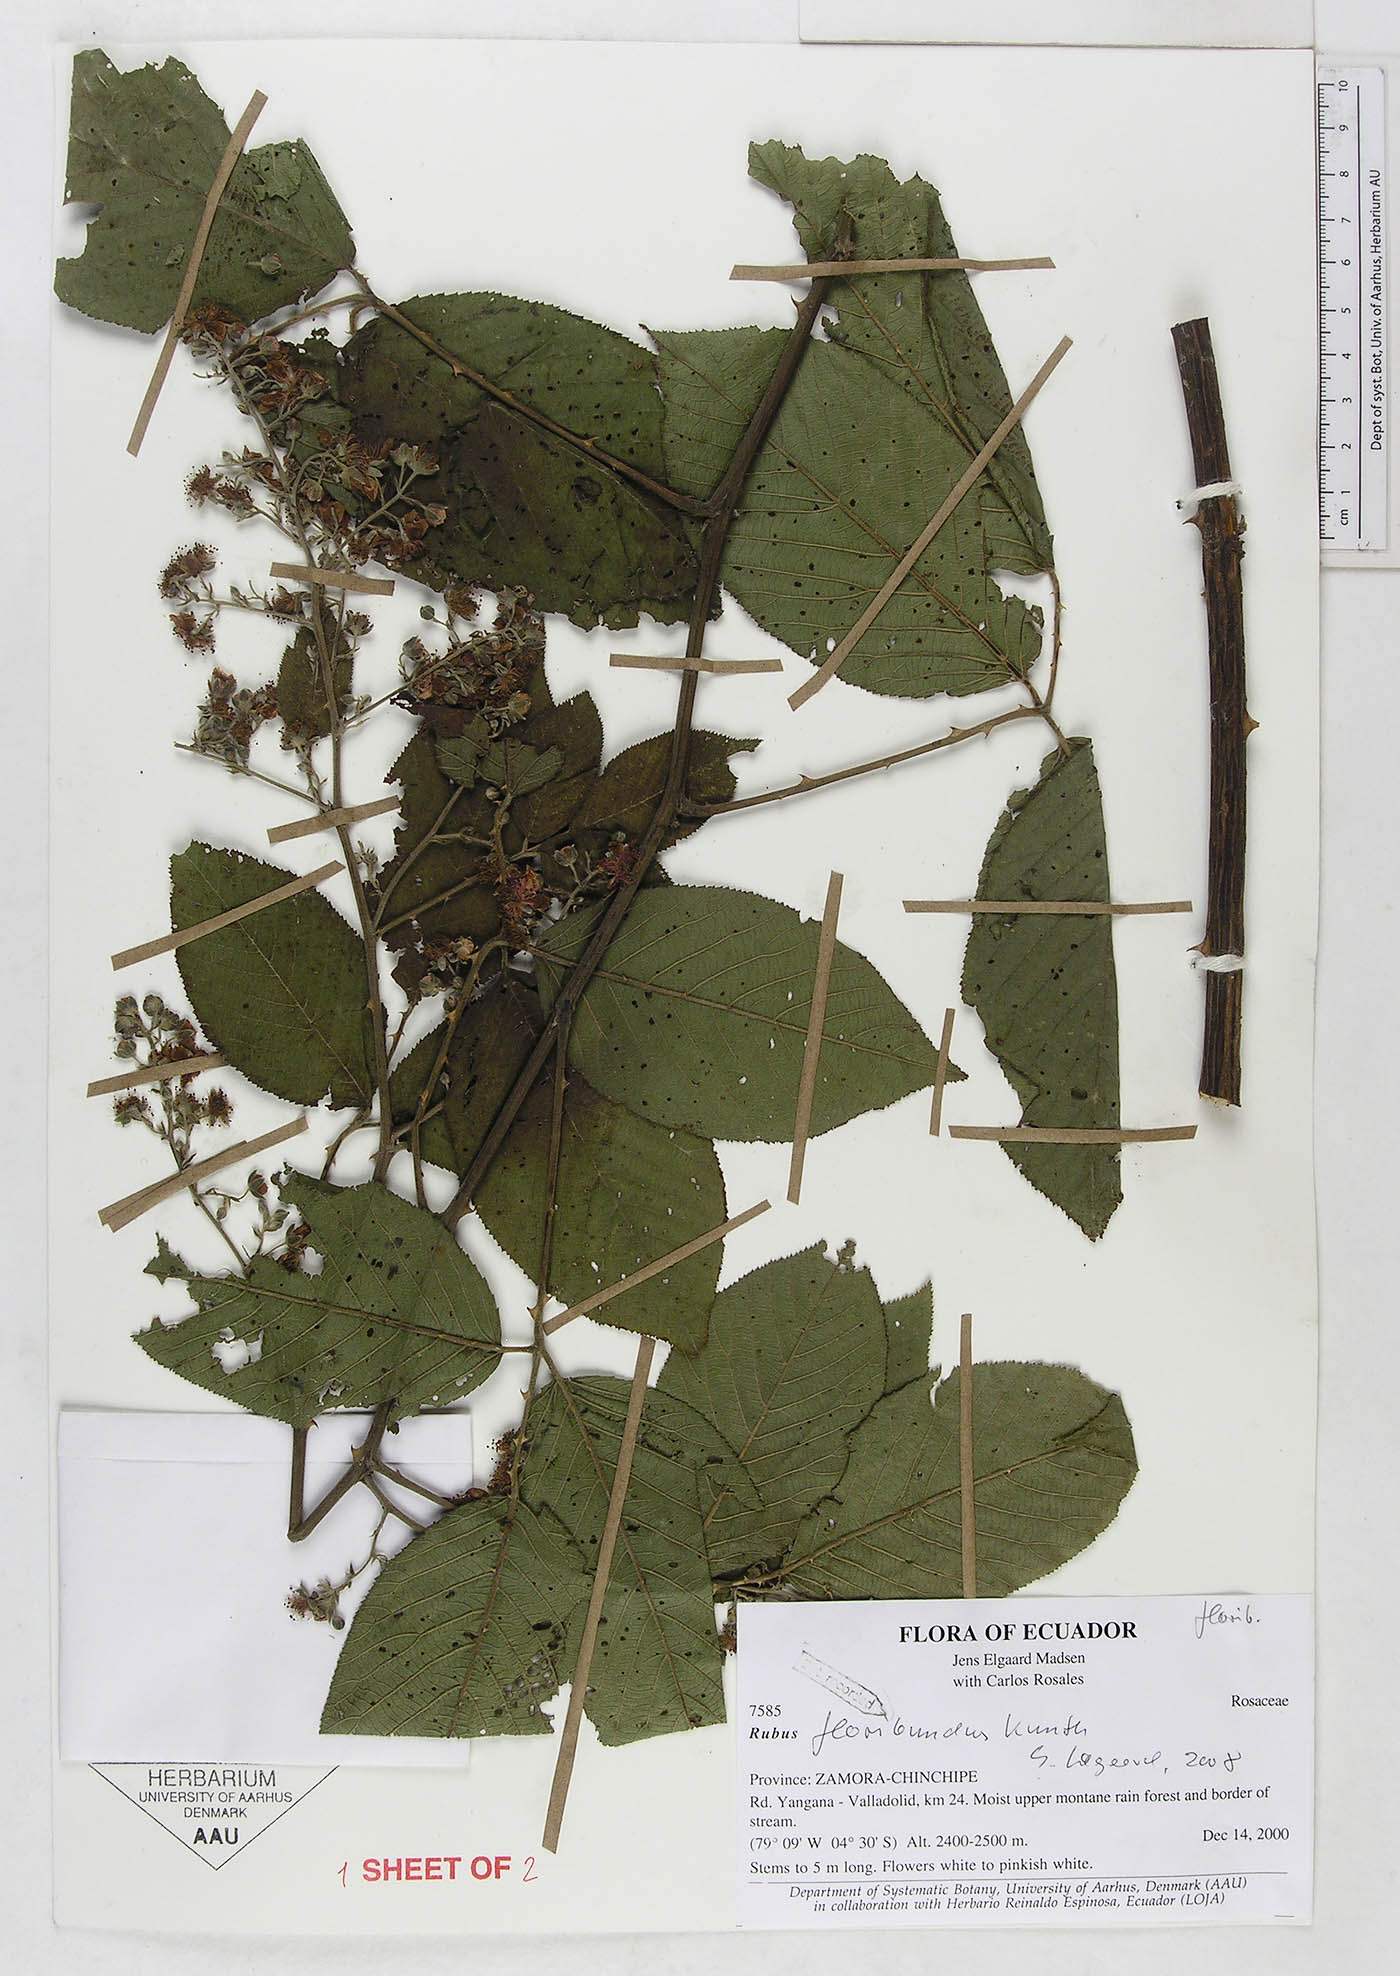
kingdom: Plantae
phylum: Tracheophyta
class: Magnoliopsida
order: Rosales
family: Rosaceae
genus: Rubus
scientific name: Rubus floribundus
